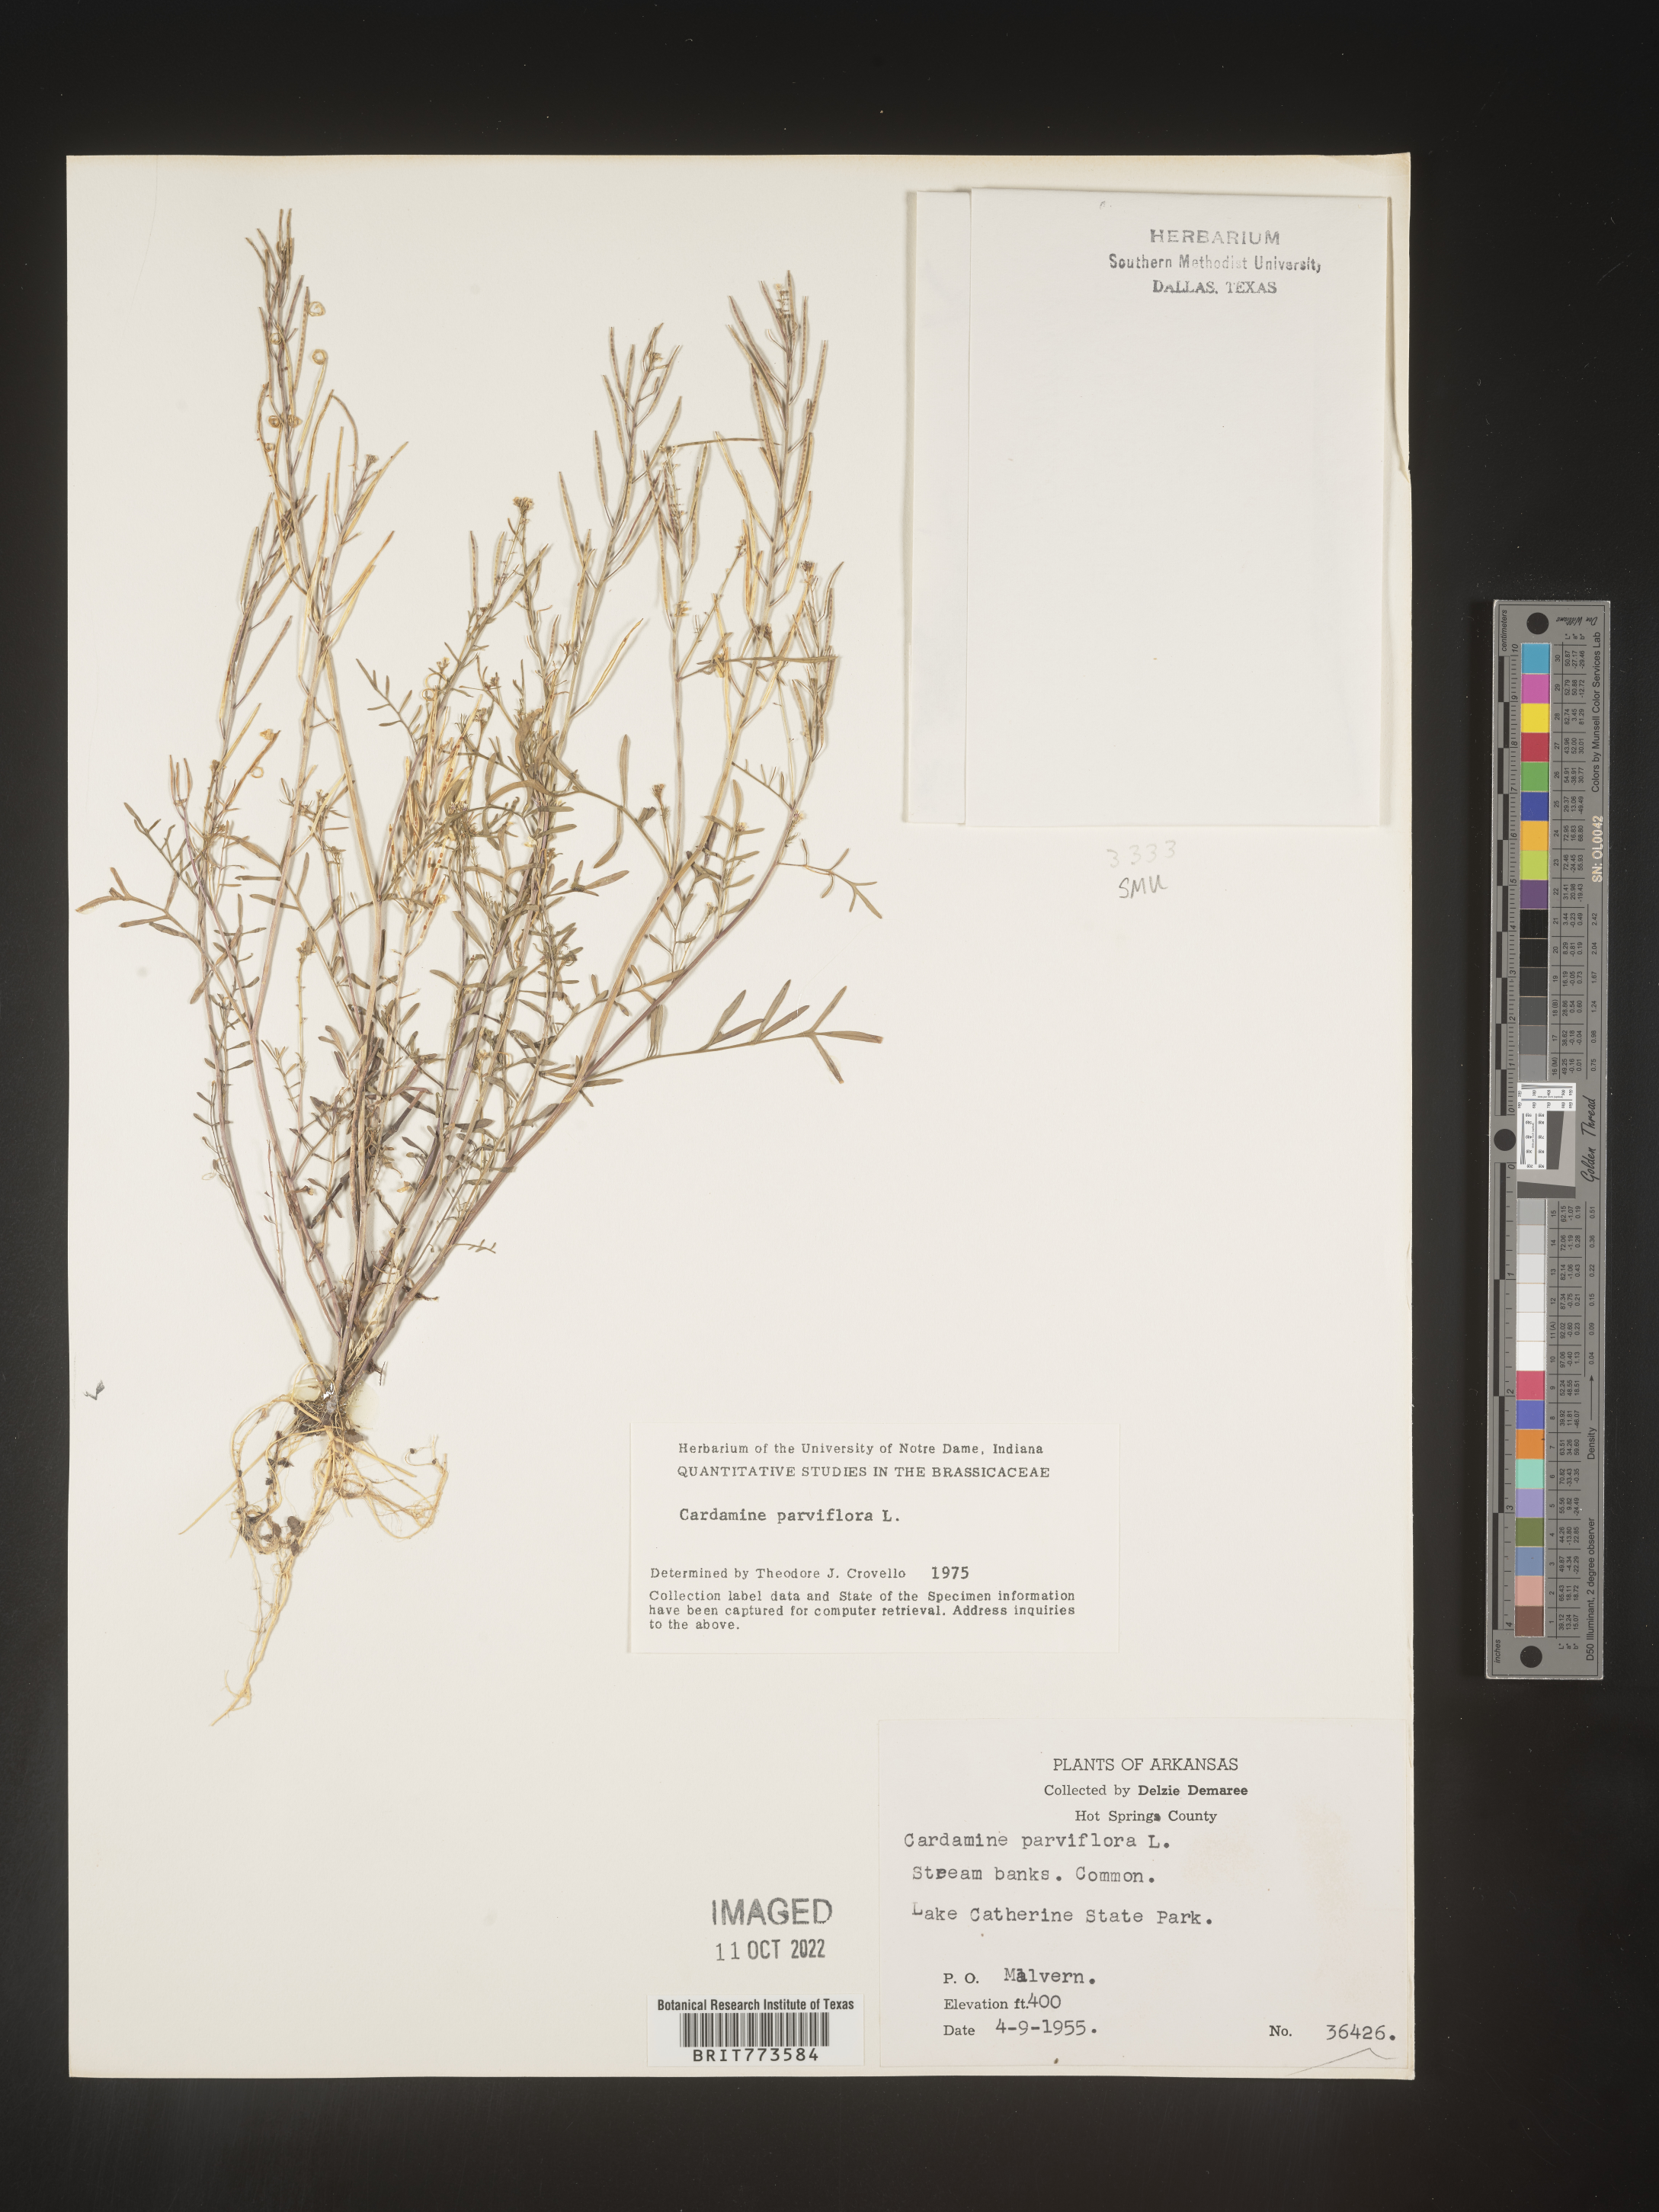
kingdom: Plantae
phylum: Tracheophyta
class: Magnoliopsida
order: Brassicales
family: Brassicaceae
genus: Cardamine
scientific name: Cardamine parviflora
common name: Sand bittercress
